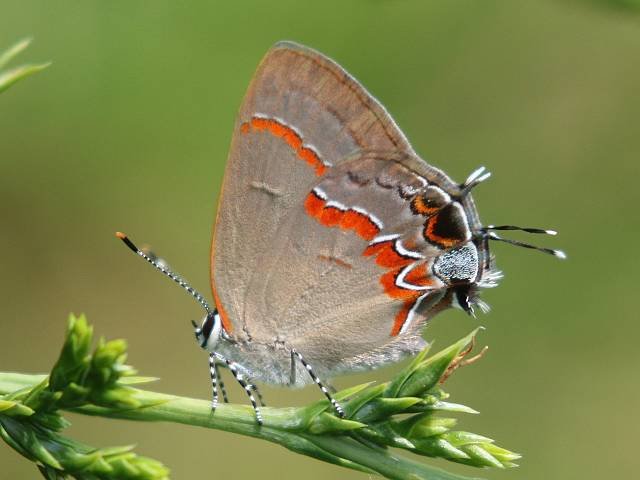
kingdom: Animalia
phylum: Arthropoda
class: Insecta
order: Lepidoptera
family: Lycaenidae
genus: Calycopis
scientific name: Calycopis cecrops
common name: Red-banded Hairstreak
